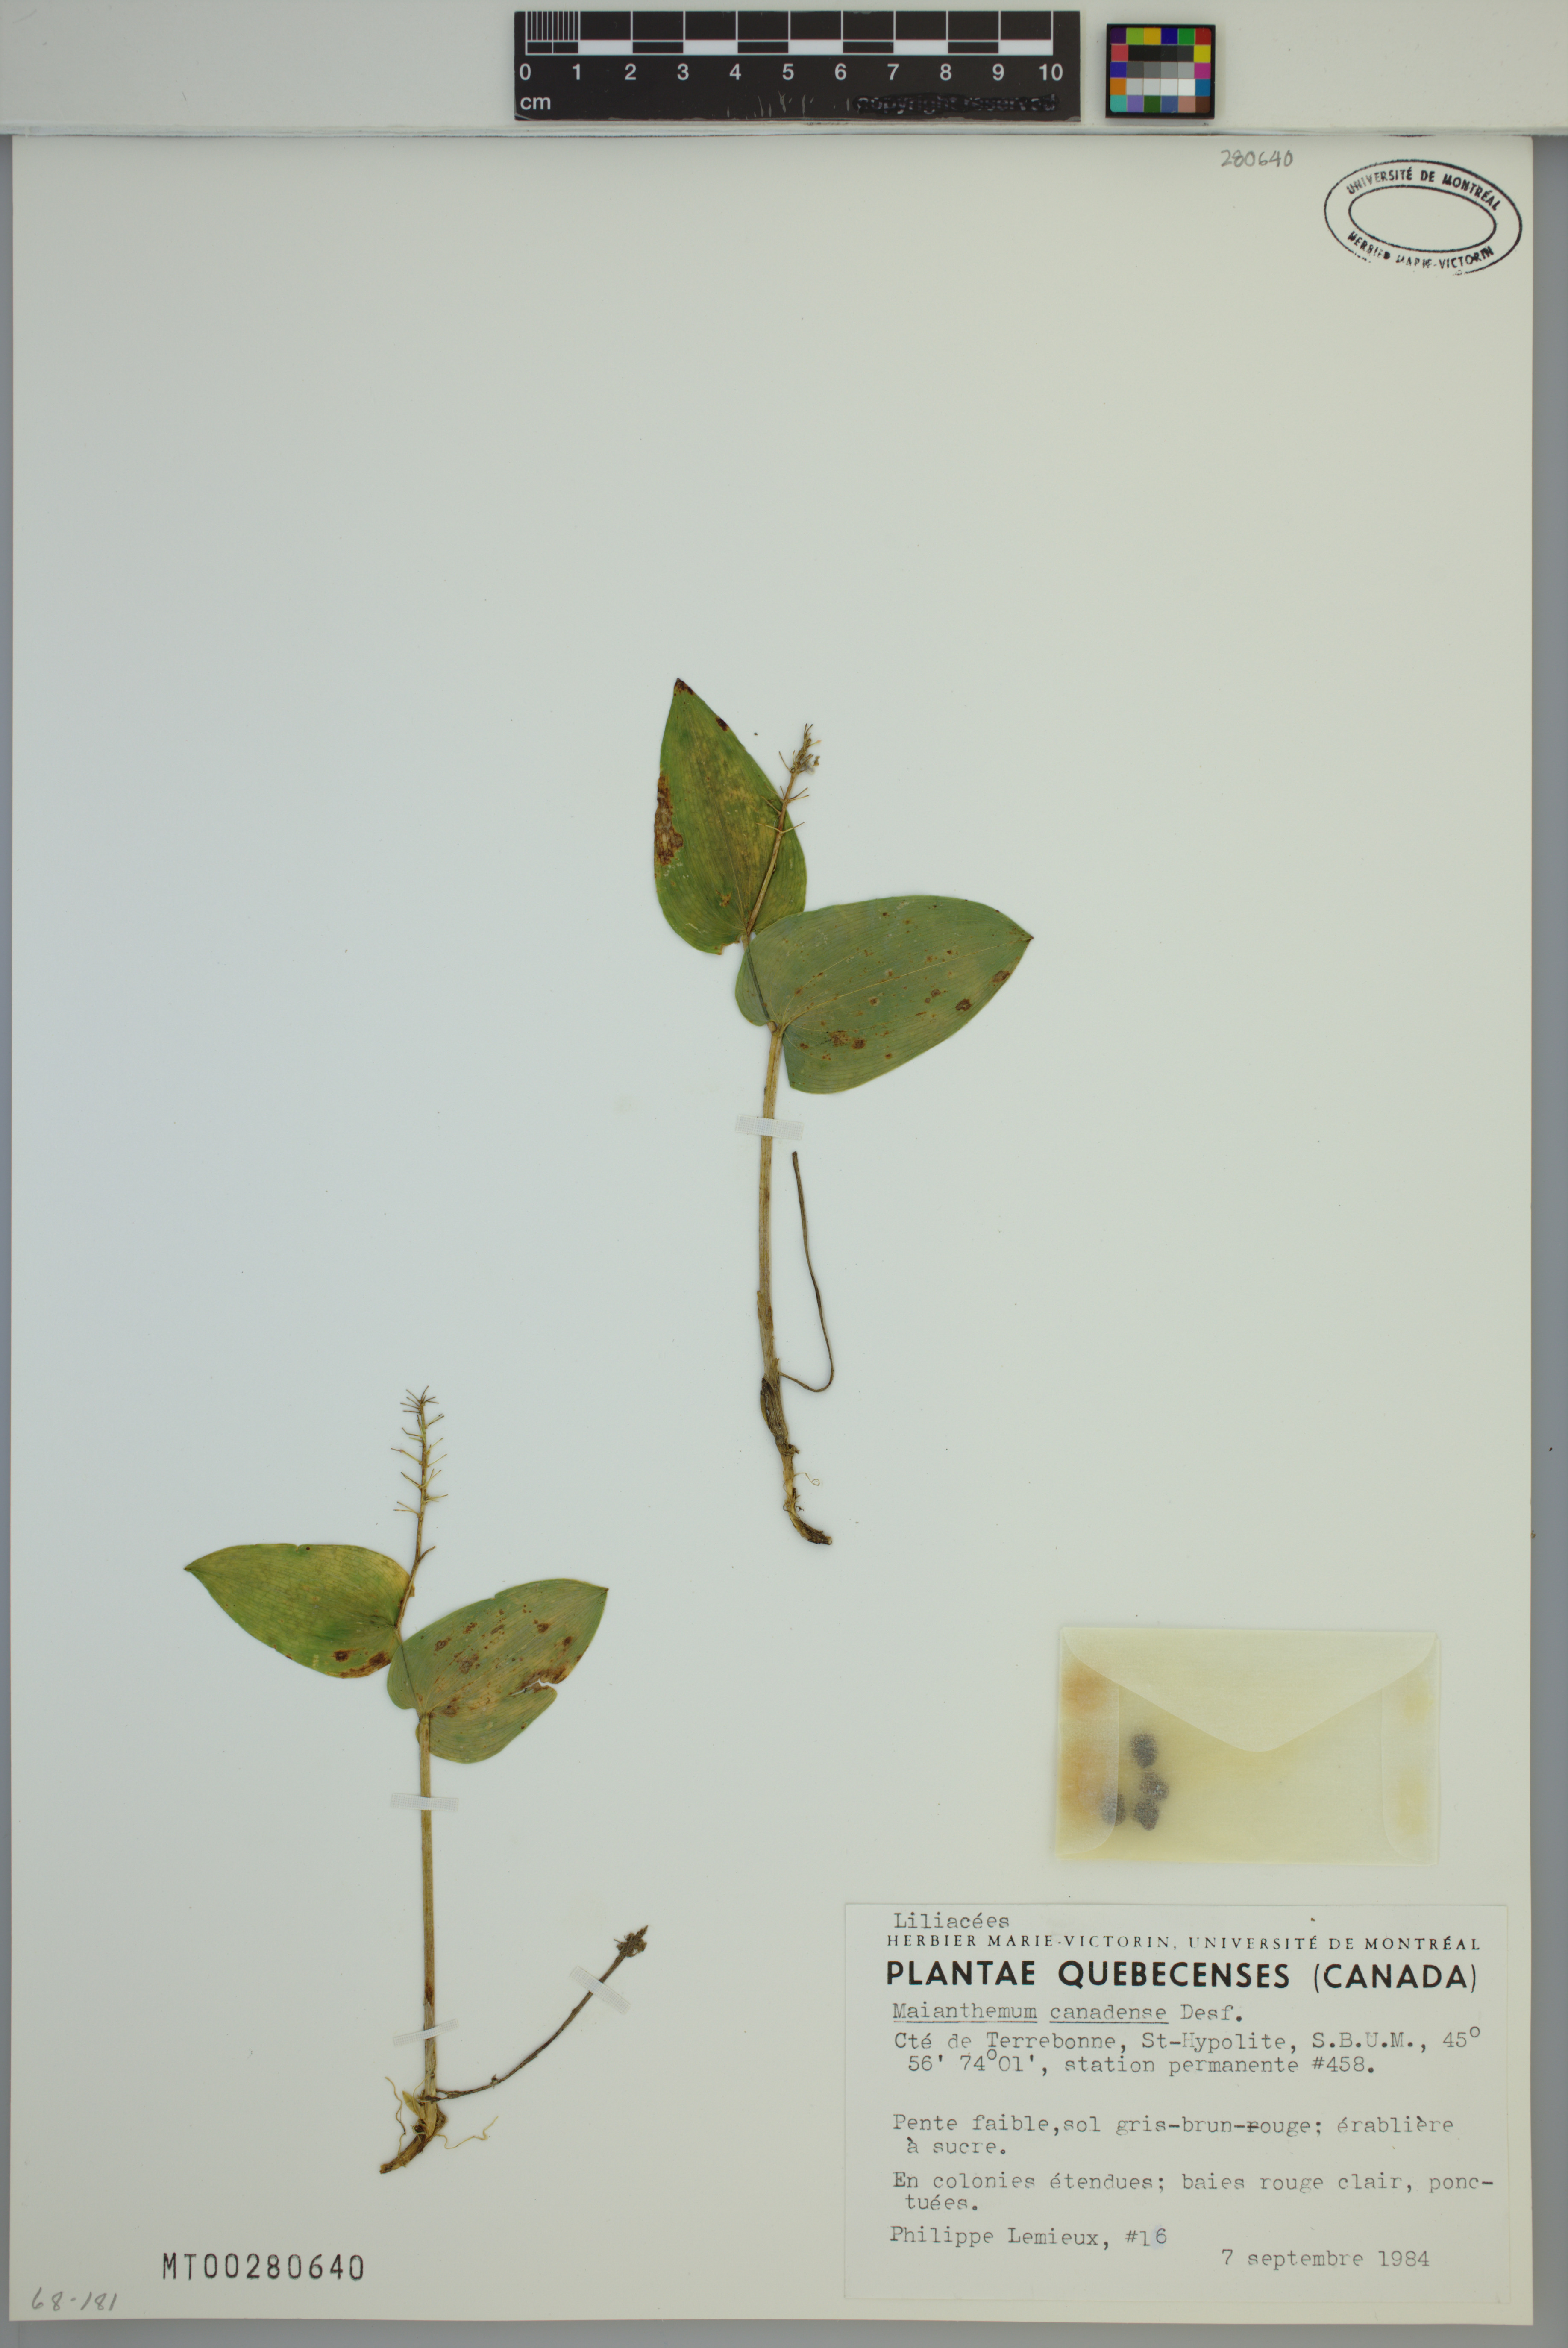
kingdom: Plantae
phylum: Tracheophyta
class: Liliopsida
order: Asparagales
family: Asparagaceae
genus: Maianthemum
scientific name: Maianthemum canadense
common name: False lily-of-the-valley
